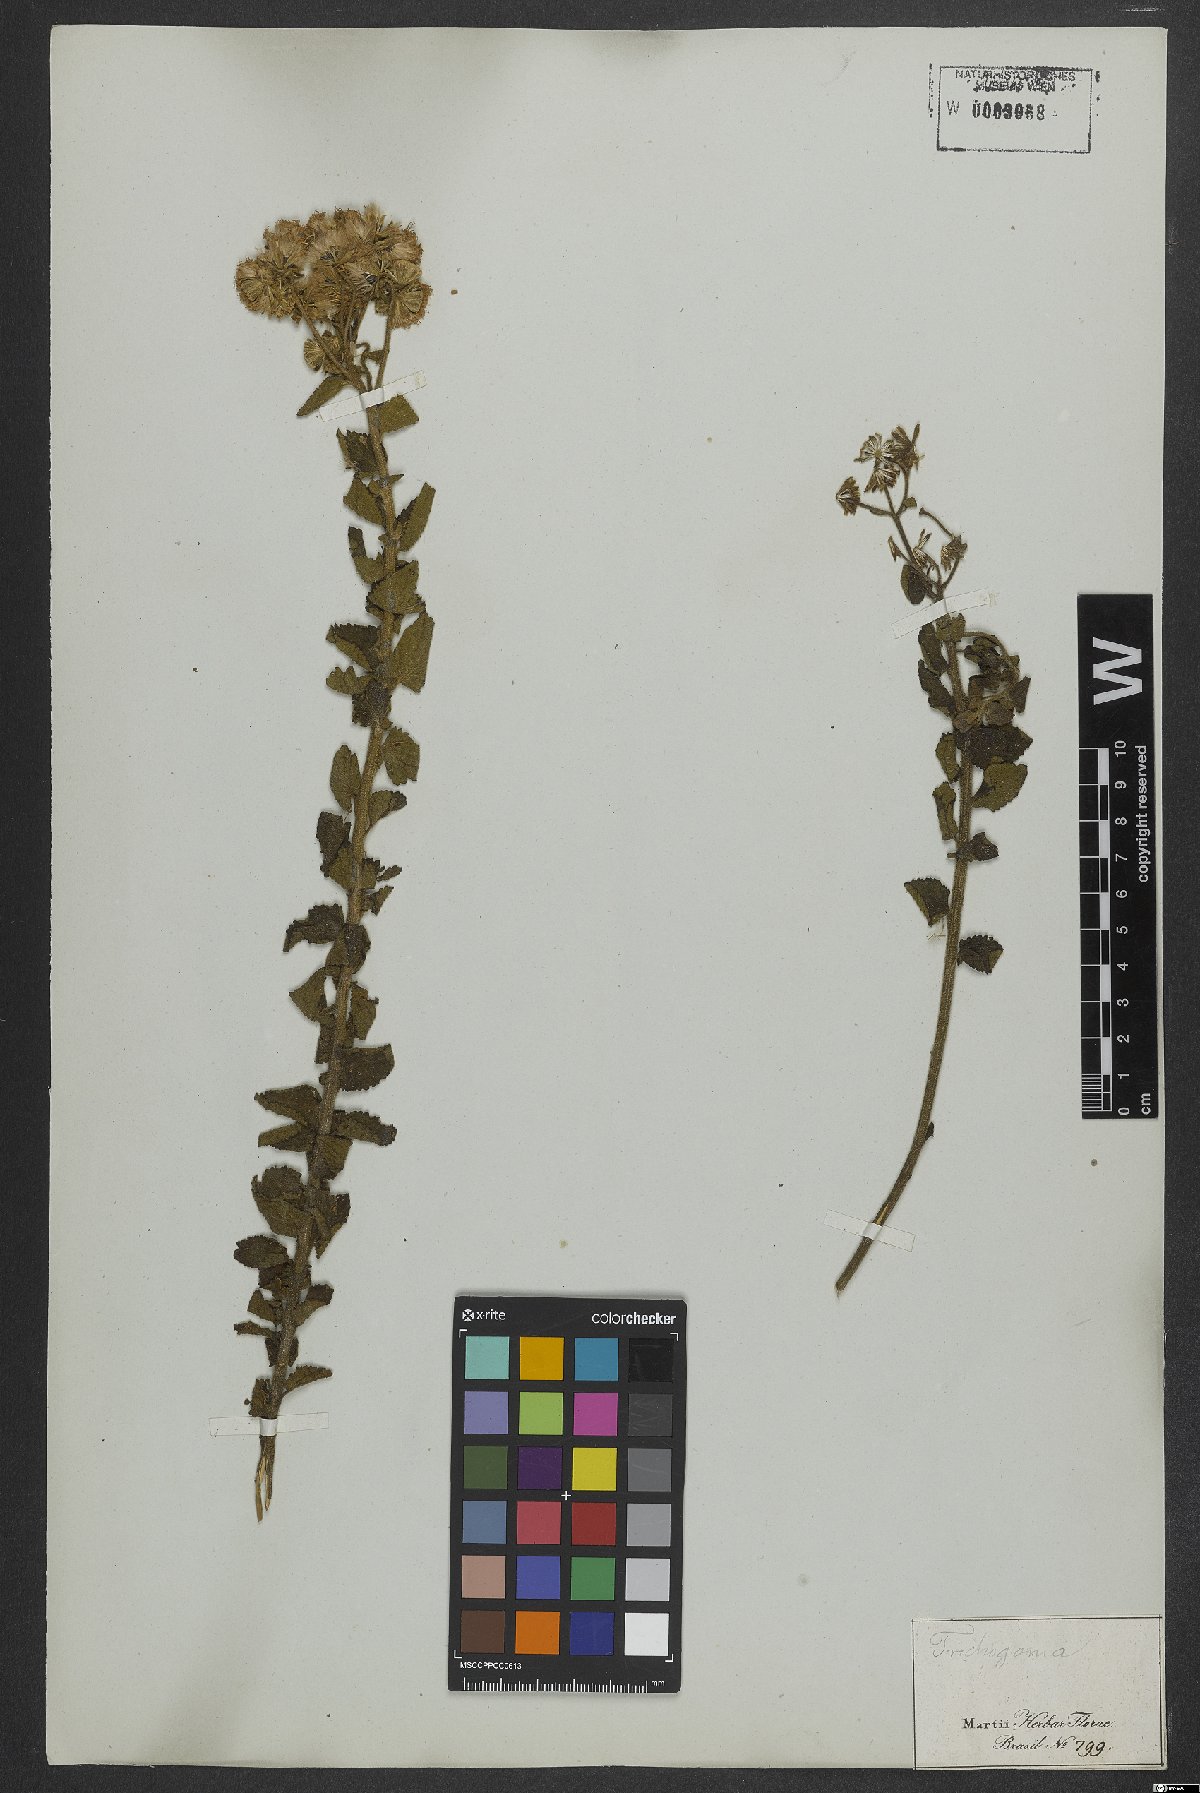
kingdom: Plantae
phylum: Tracheophyta
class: Magnoliopsida
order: Asterales
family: Asteraceae
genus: Trichogonia
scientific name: Trichogonia hirtiflora
